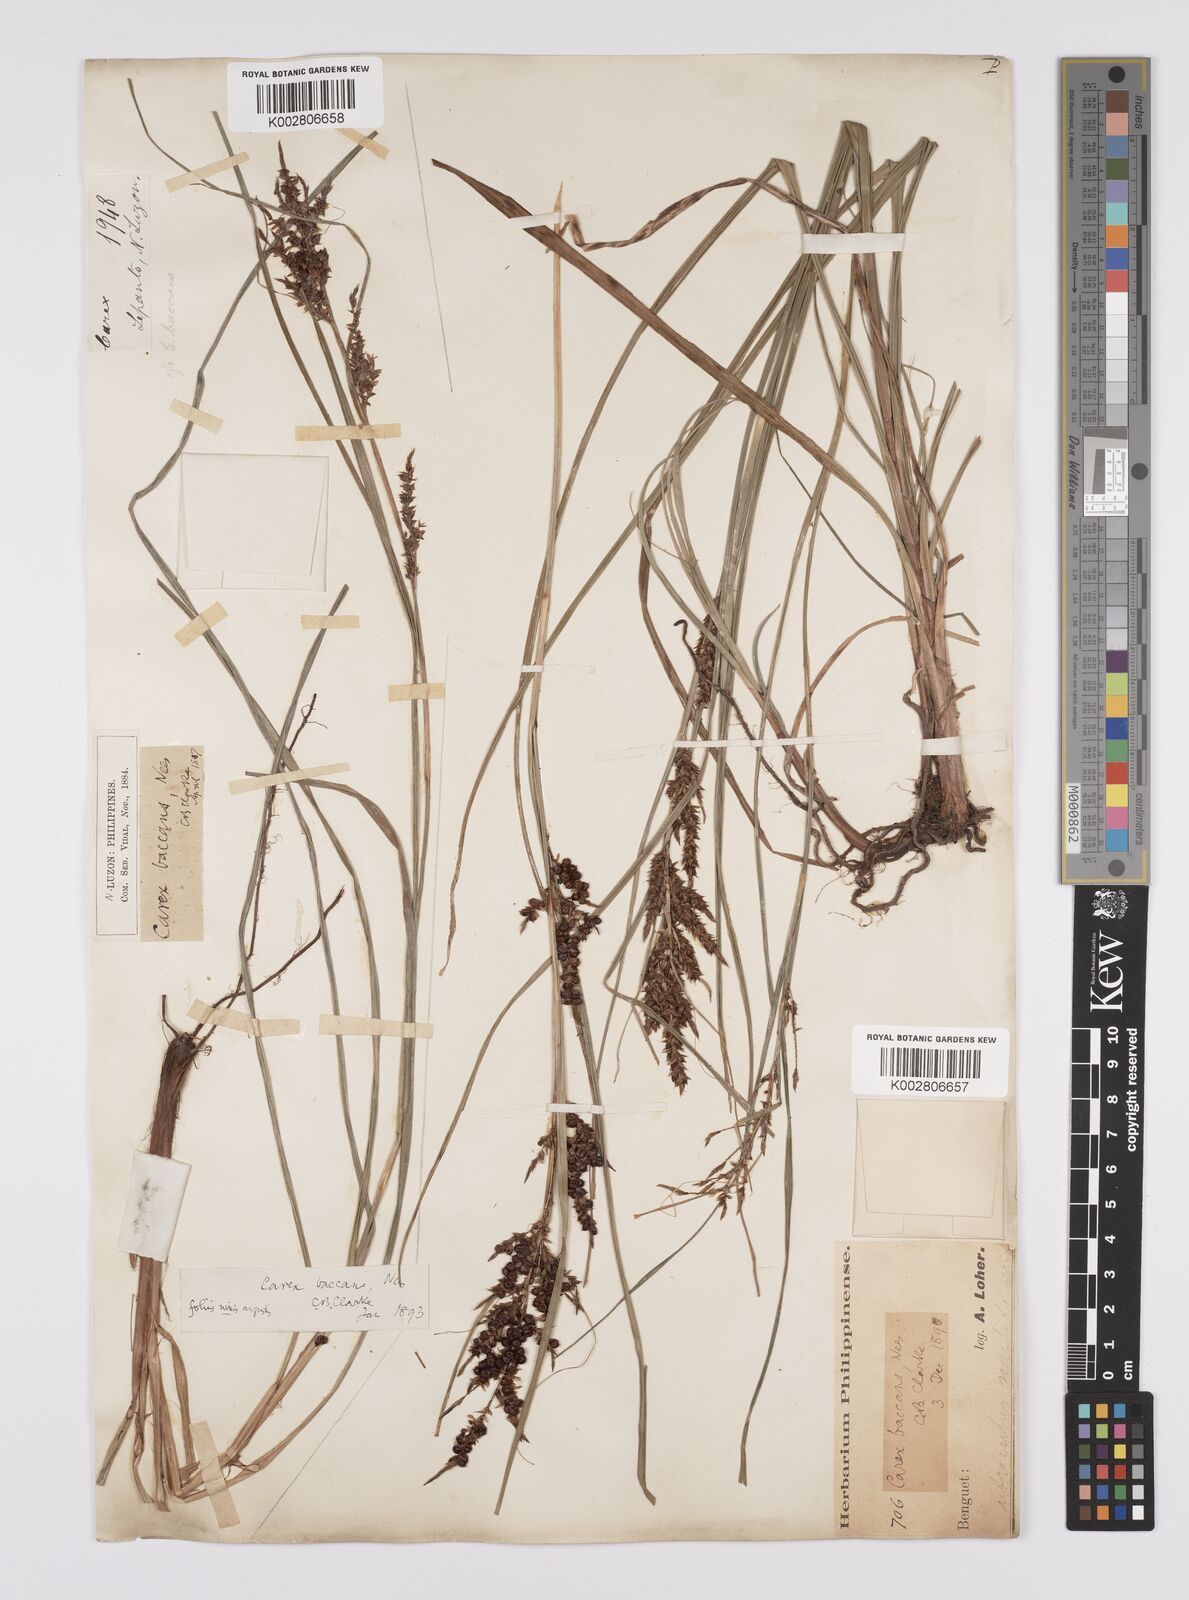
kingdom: Plantae
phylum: Tracheophyta
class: Liliopsida
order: Poales
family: Cyperaceae
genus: Carex
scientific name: Carex baccans
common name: Crimson seeded sedge
